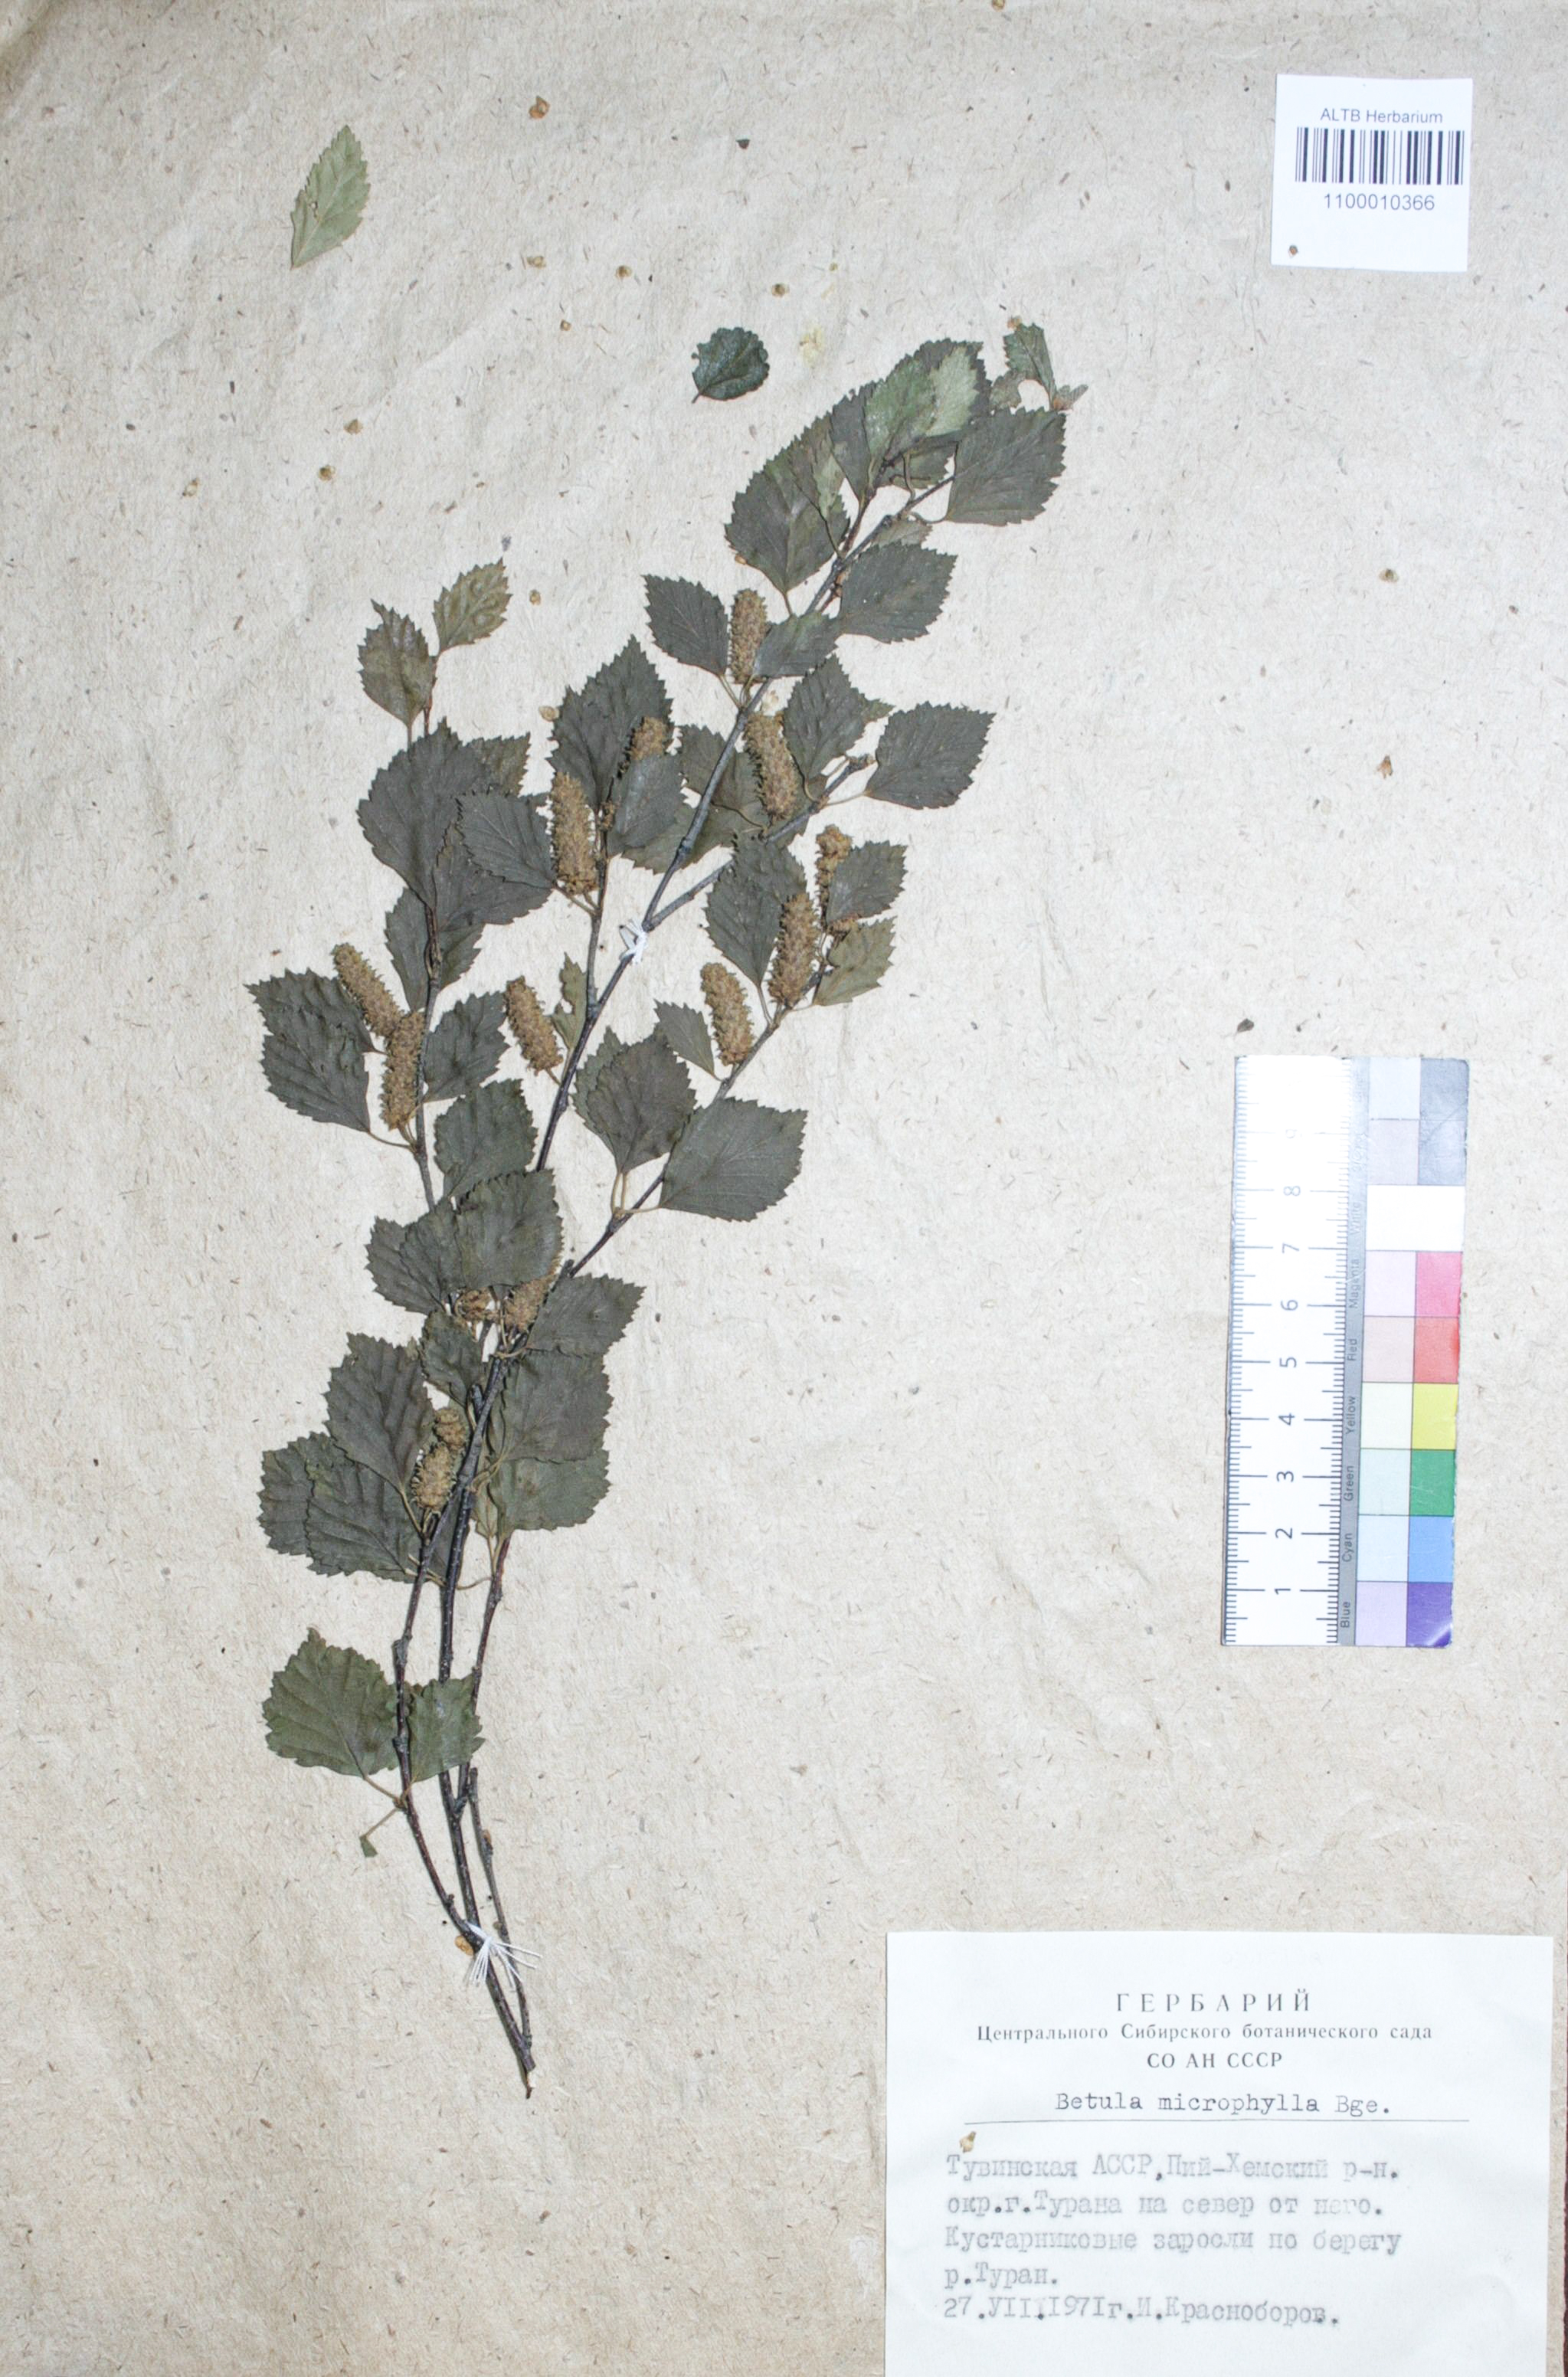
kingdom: Plantae
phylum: Tracheophyta
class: Magnoliopsida
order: Fagales
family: Betulaceae
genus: Betula
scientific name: Betula microphylla
